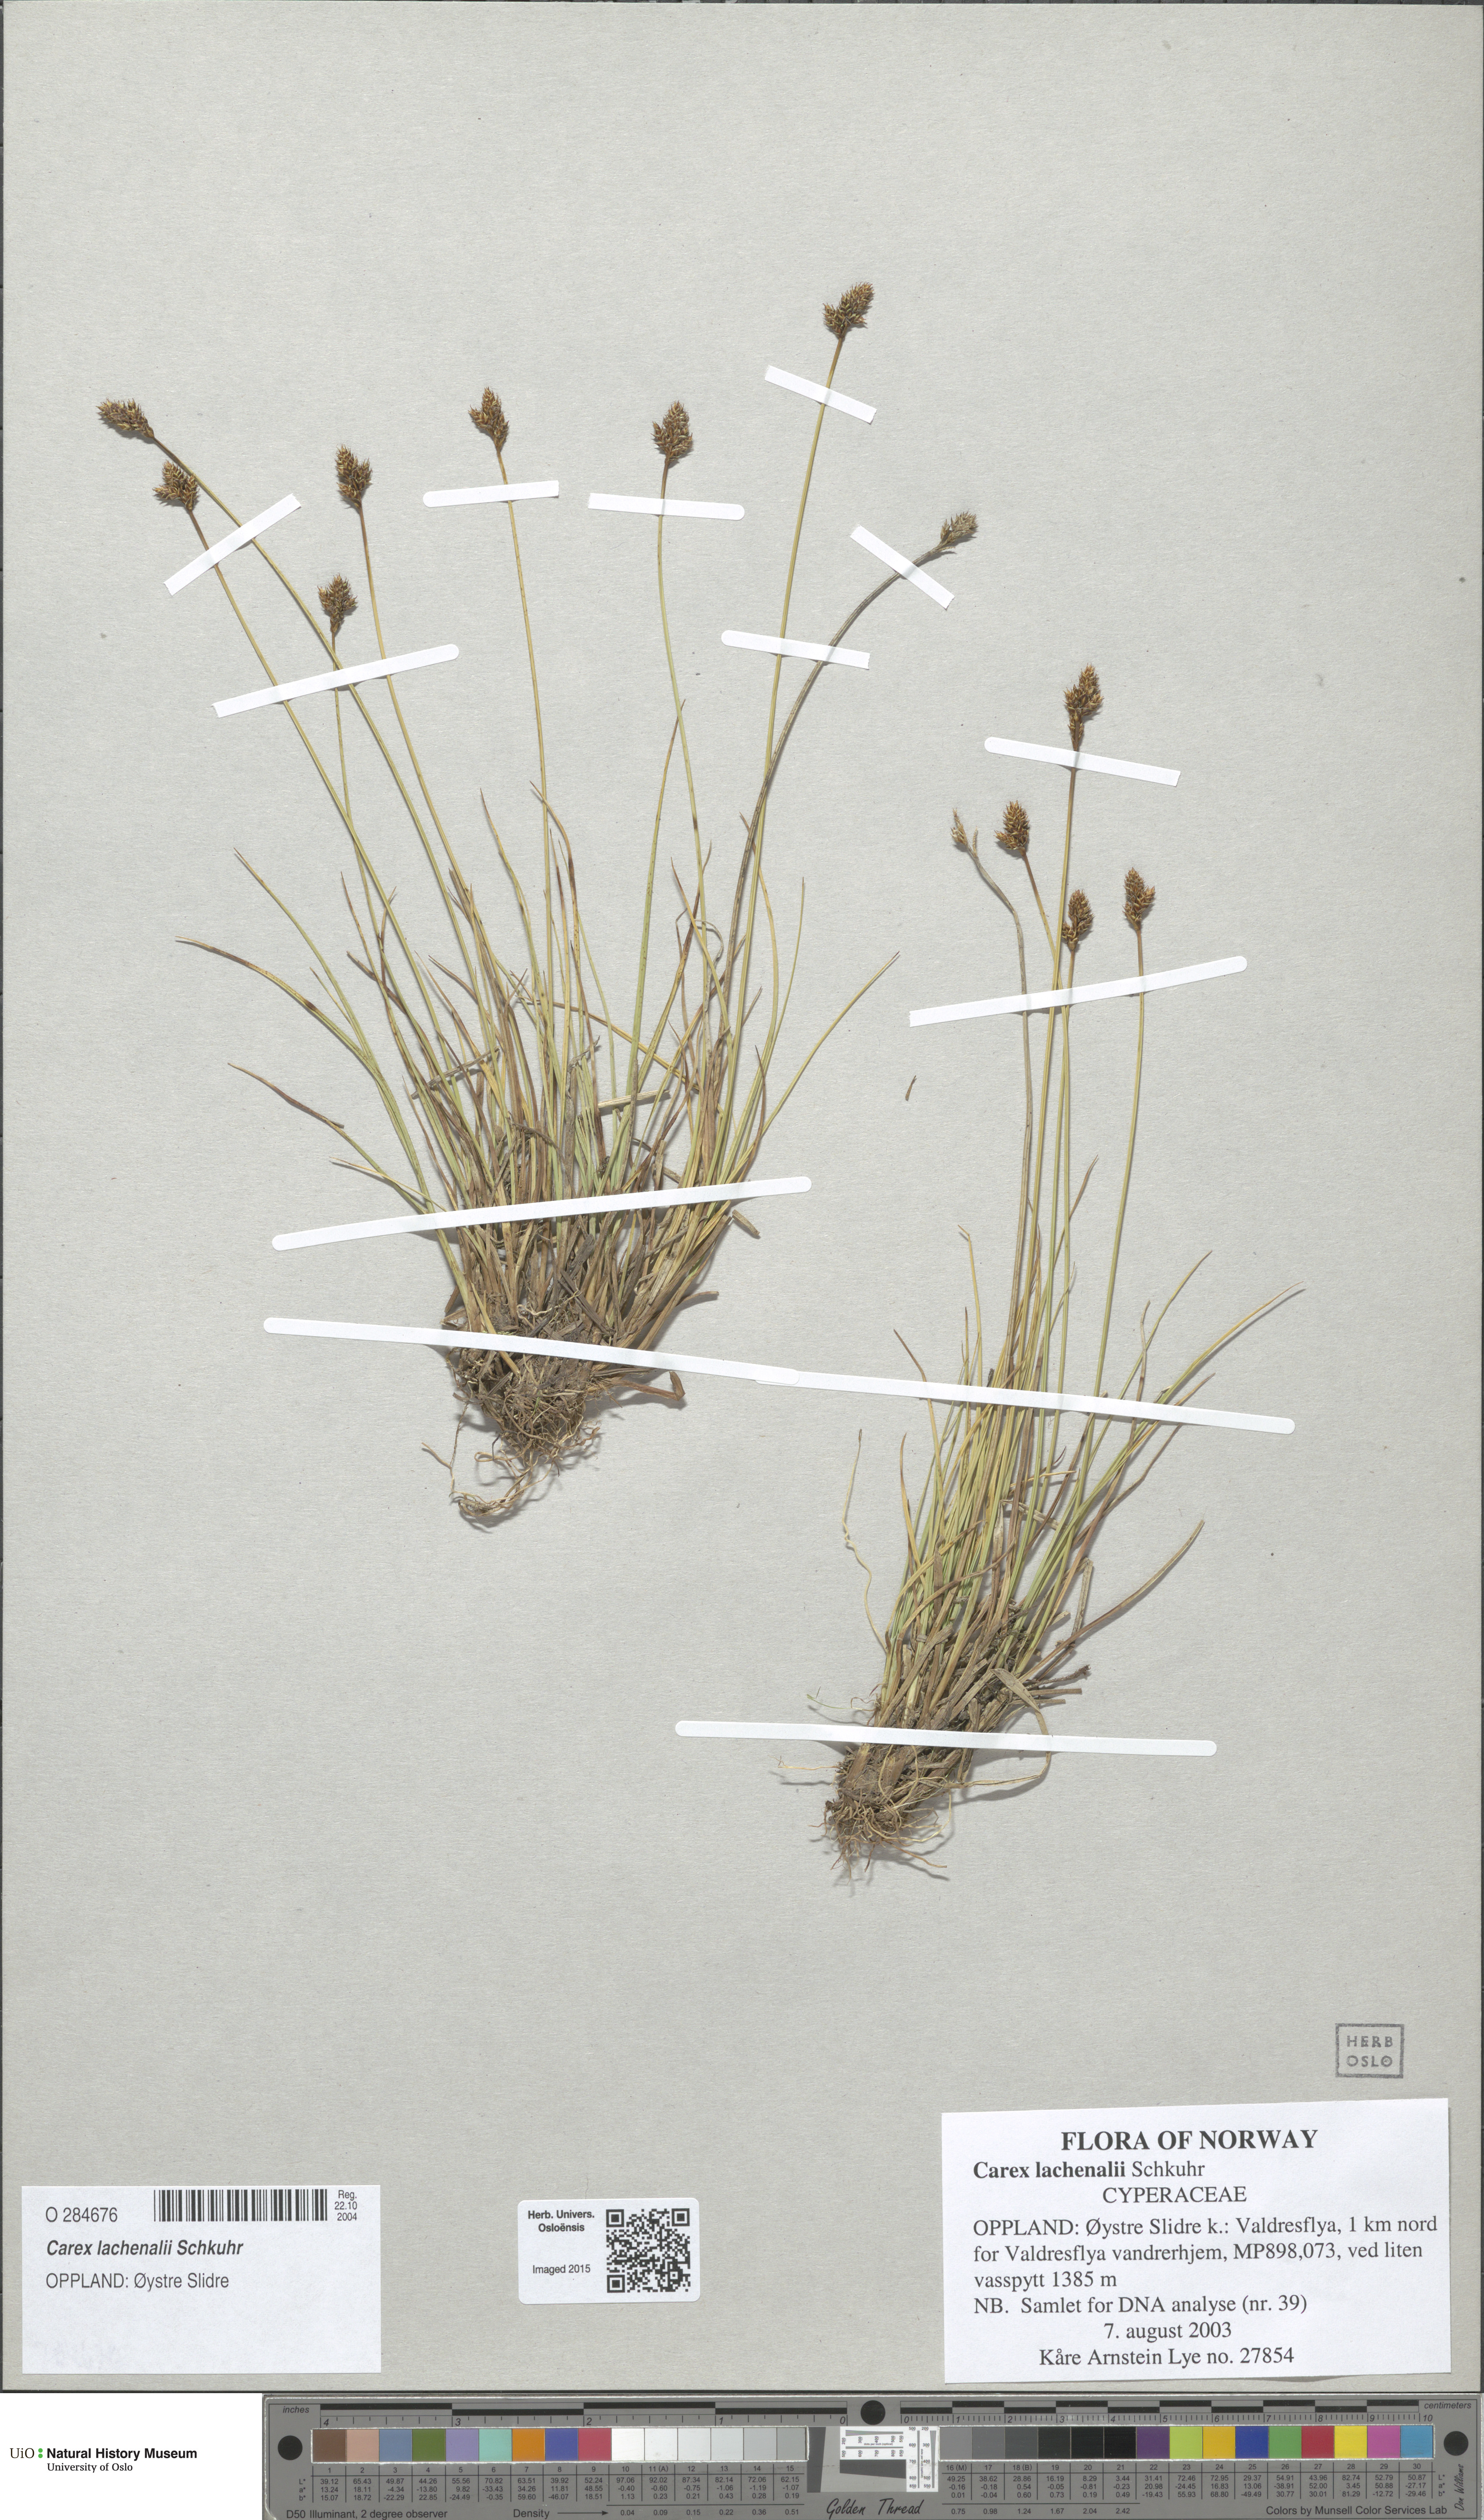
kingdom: Plantae
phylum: Tracheophyta
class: Liliopsida
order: Poales
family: Cyperaceae
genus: Carex
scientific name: Carex lachenalii
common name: Hare's-foot sedge
